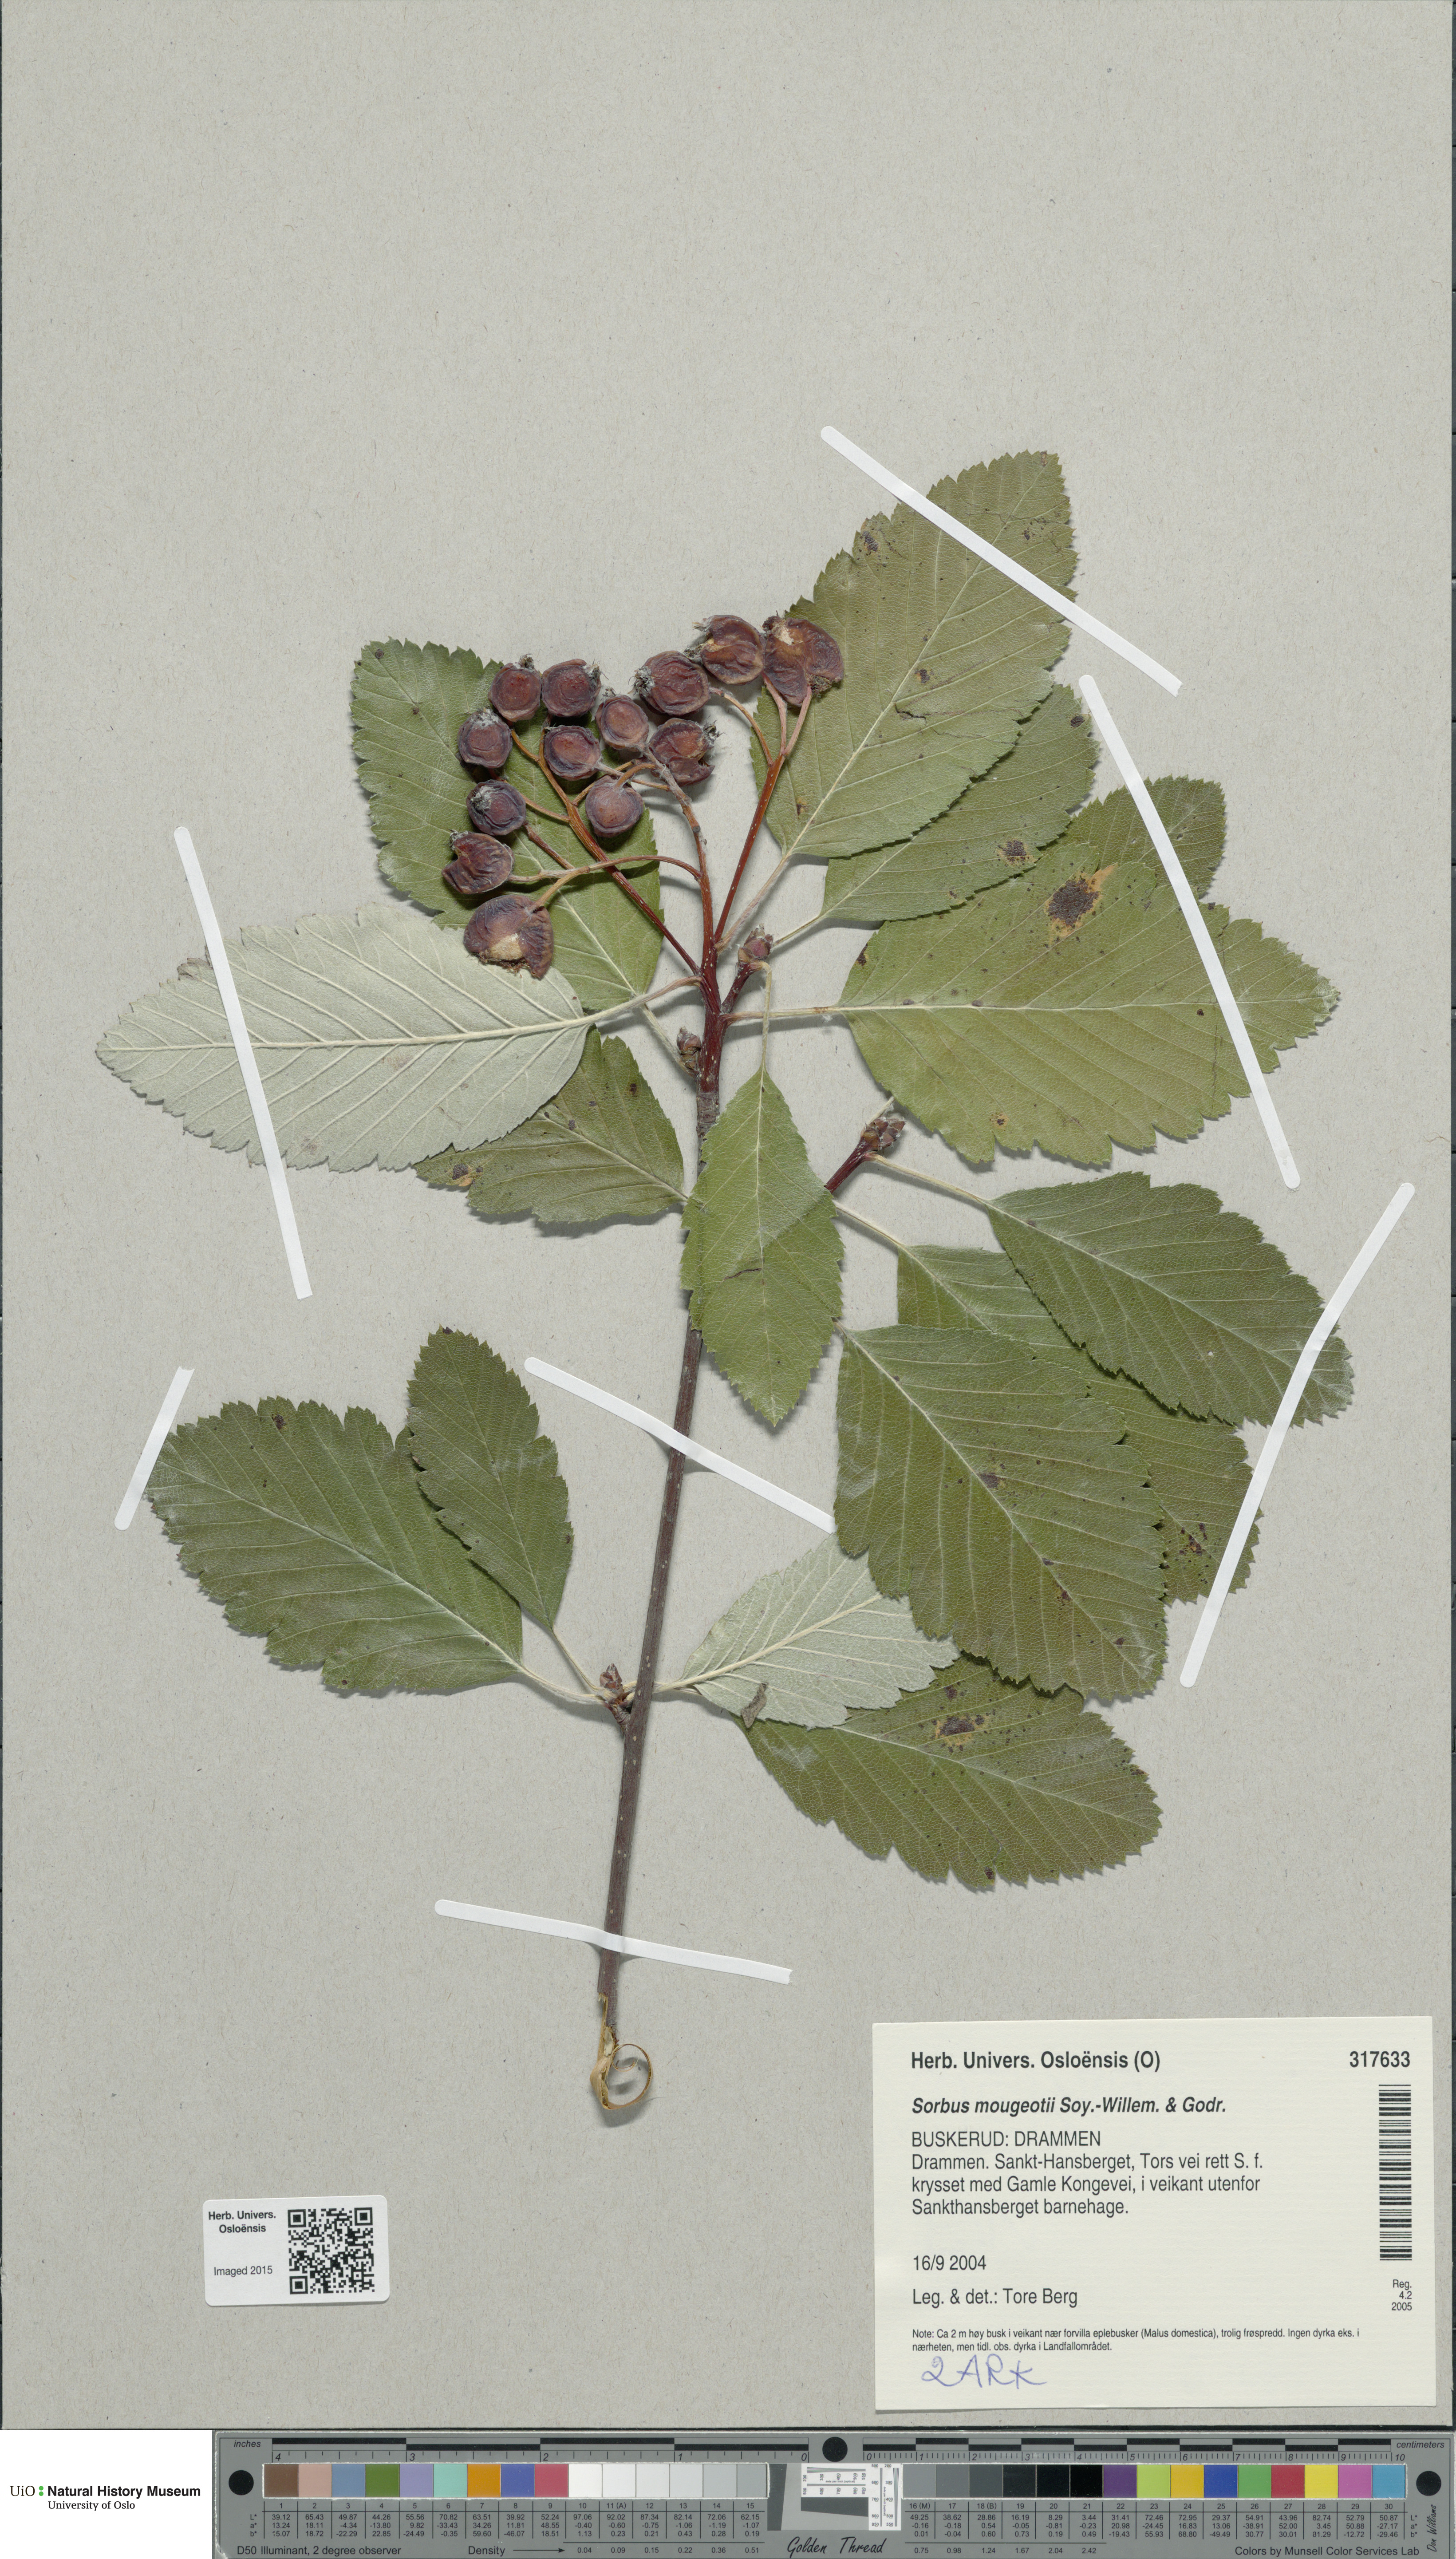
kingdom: Plantae
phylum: Tracheophyta
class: Magnoliopsida
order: Rosales
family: Rosaceae
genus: Hedlundia
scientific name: Hedlundia mougeotii
